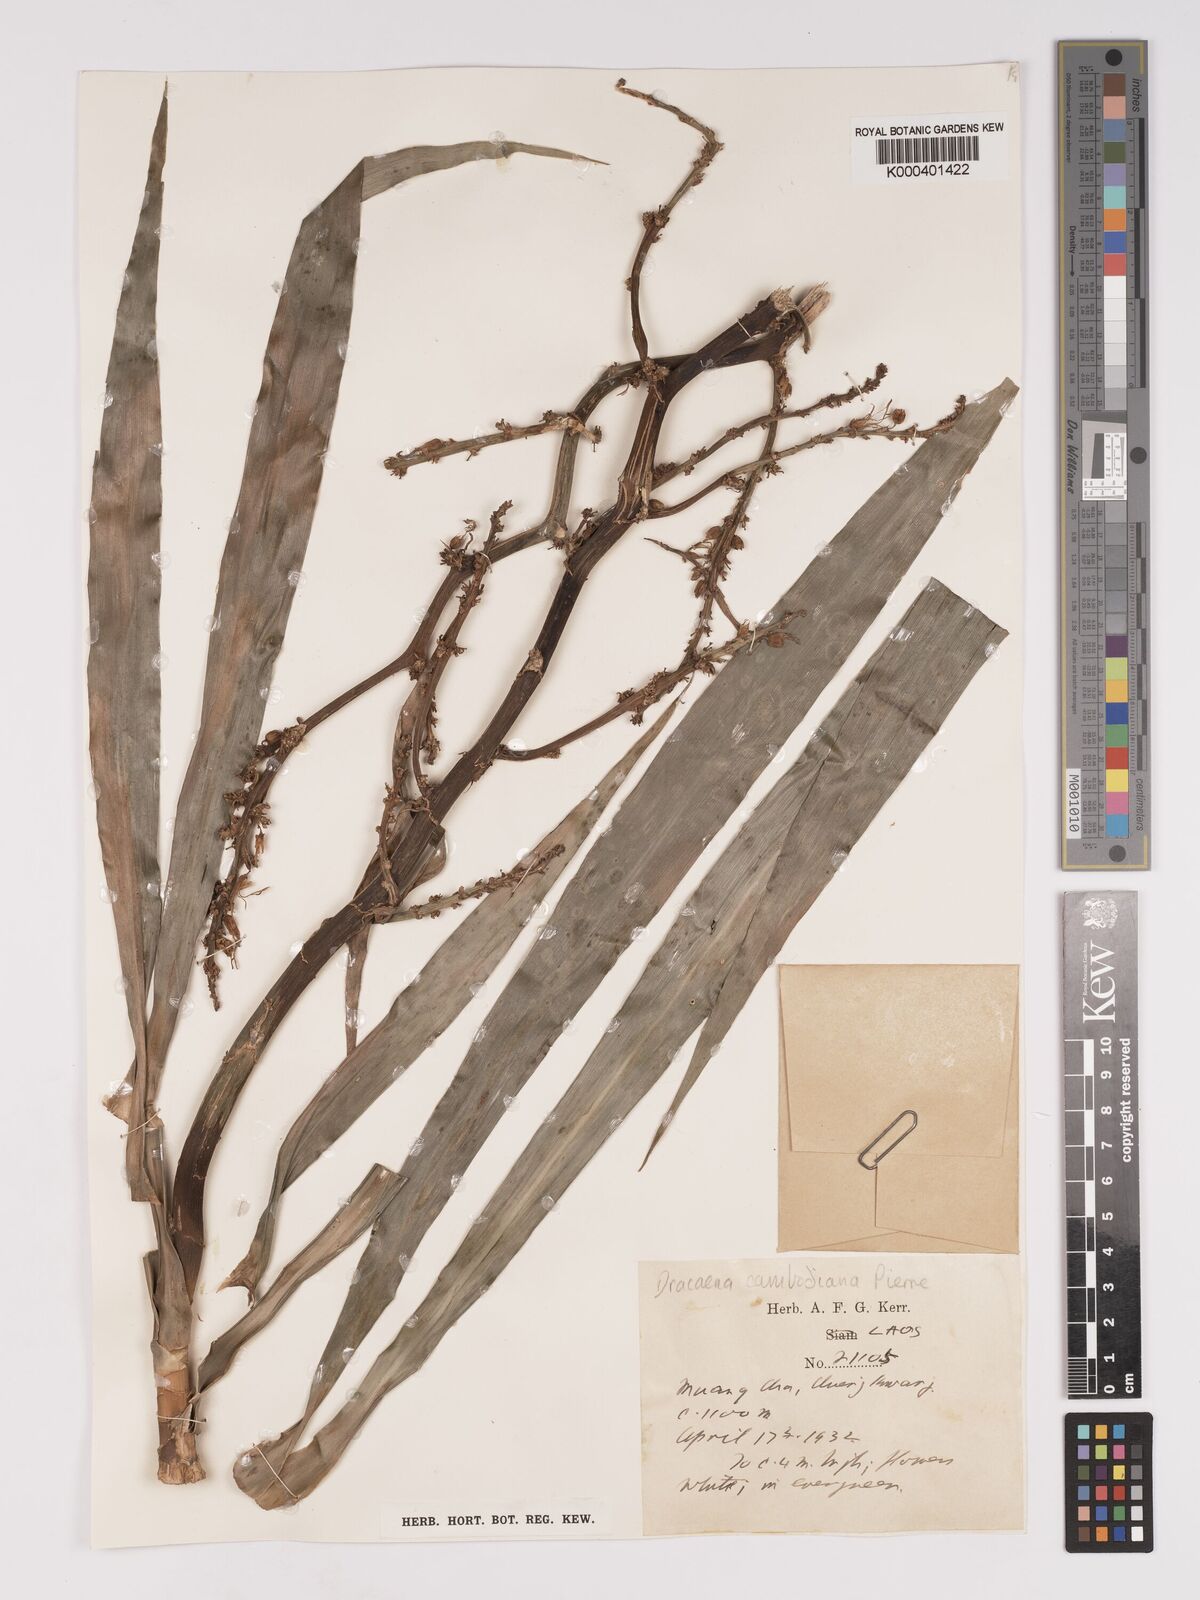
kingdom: Plantae
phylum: Tracheophyta
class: Liliopsida
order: Asparagales
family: Asparagaceae
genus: Dracaena
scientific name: Dracaena cambodiana
